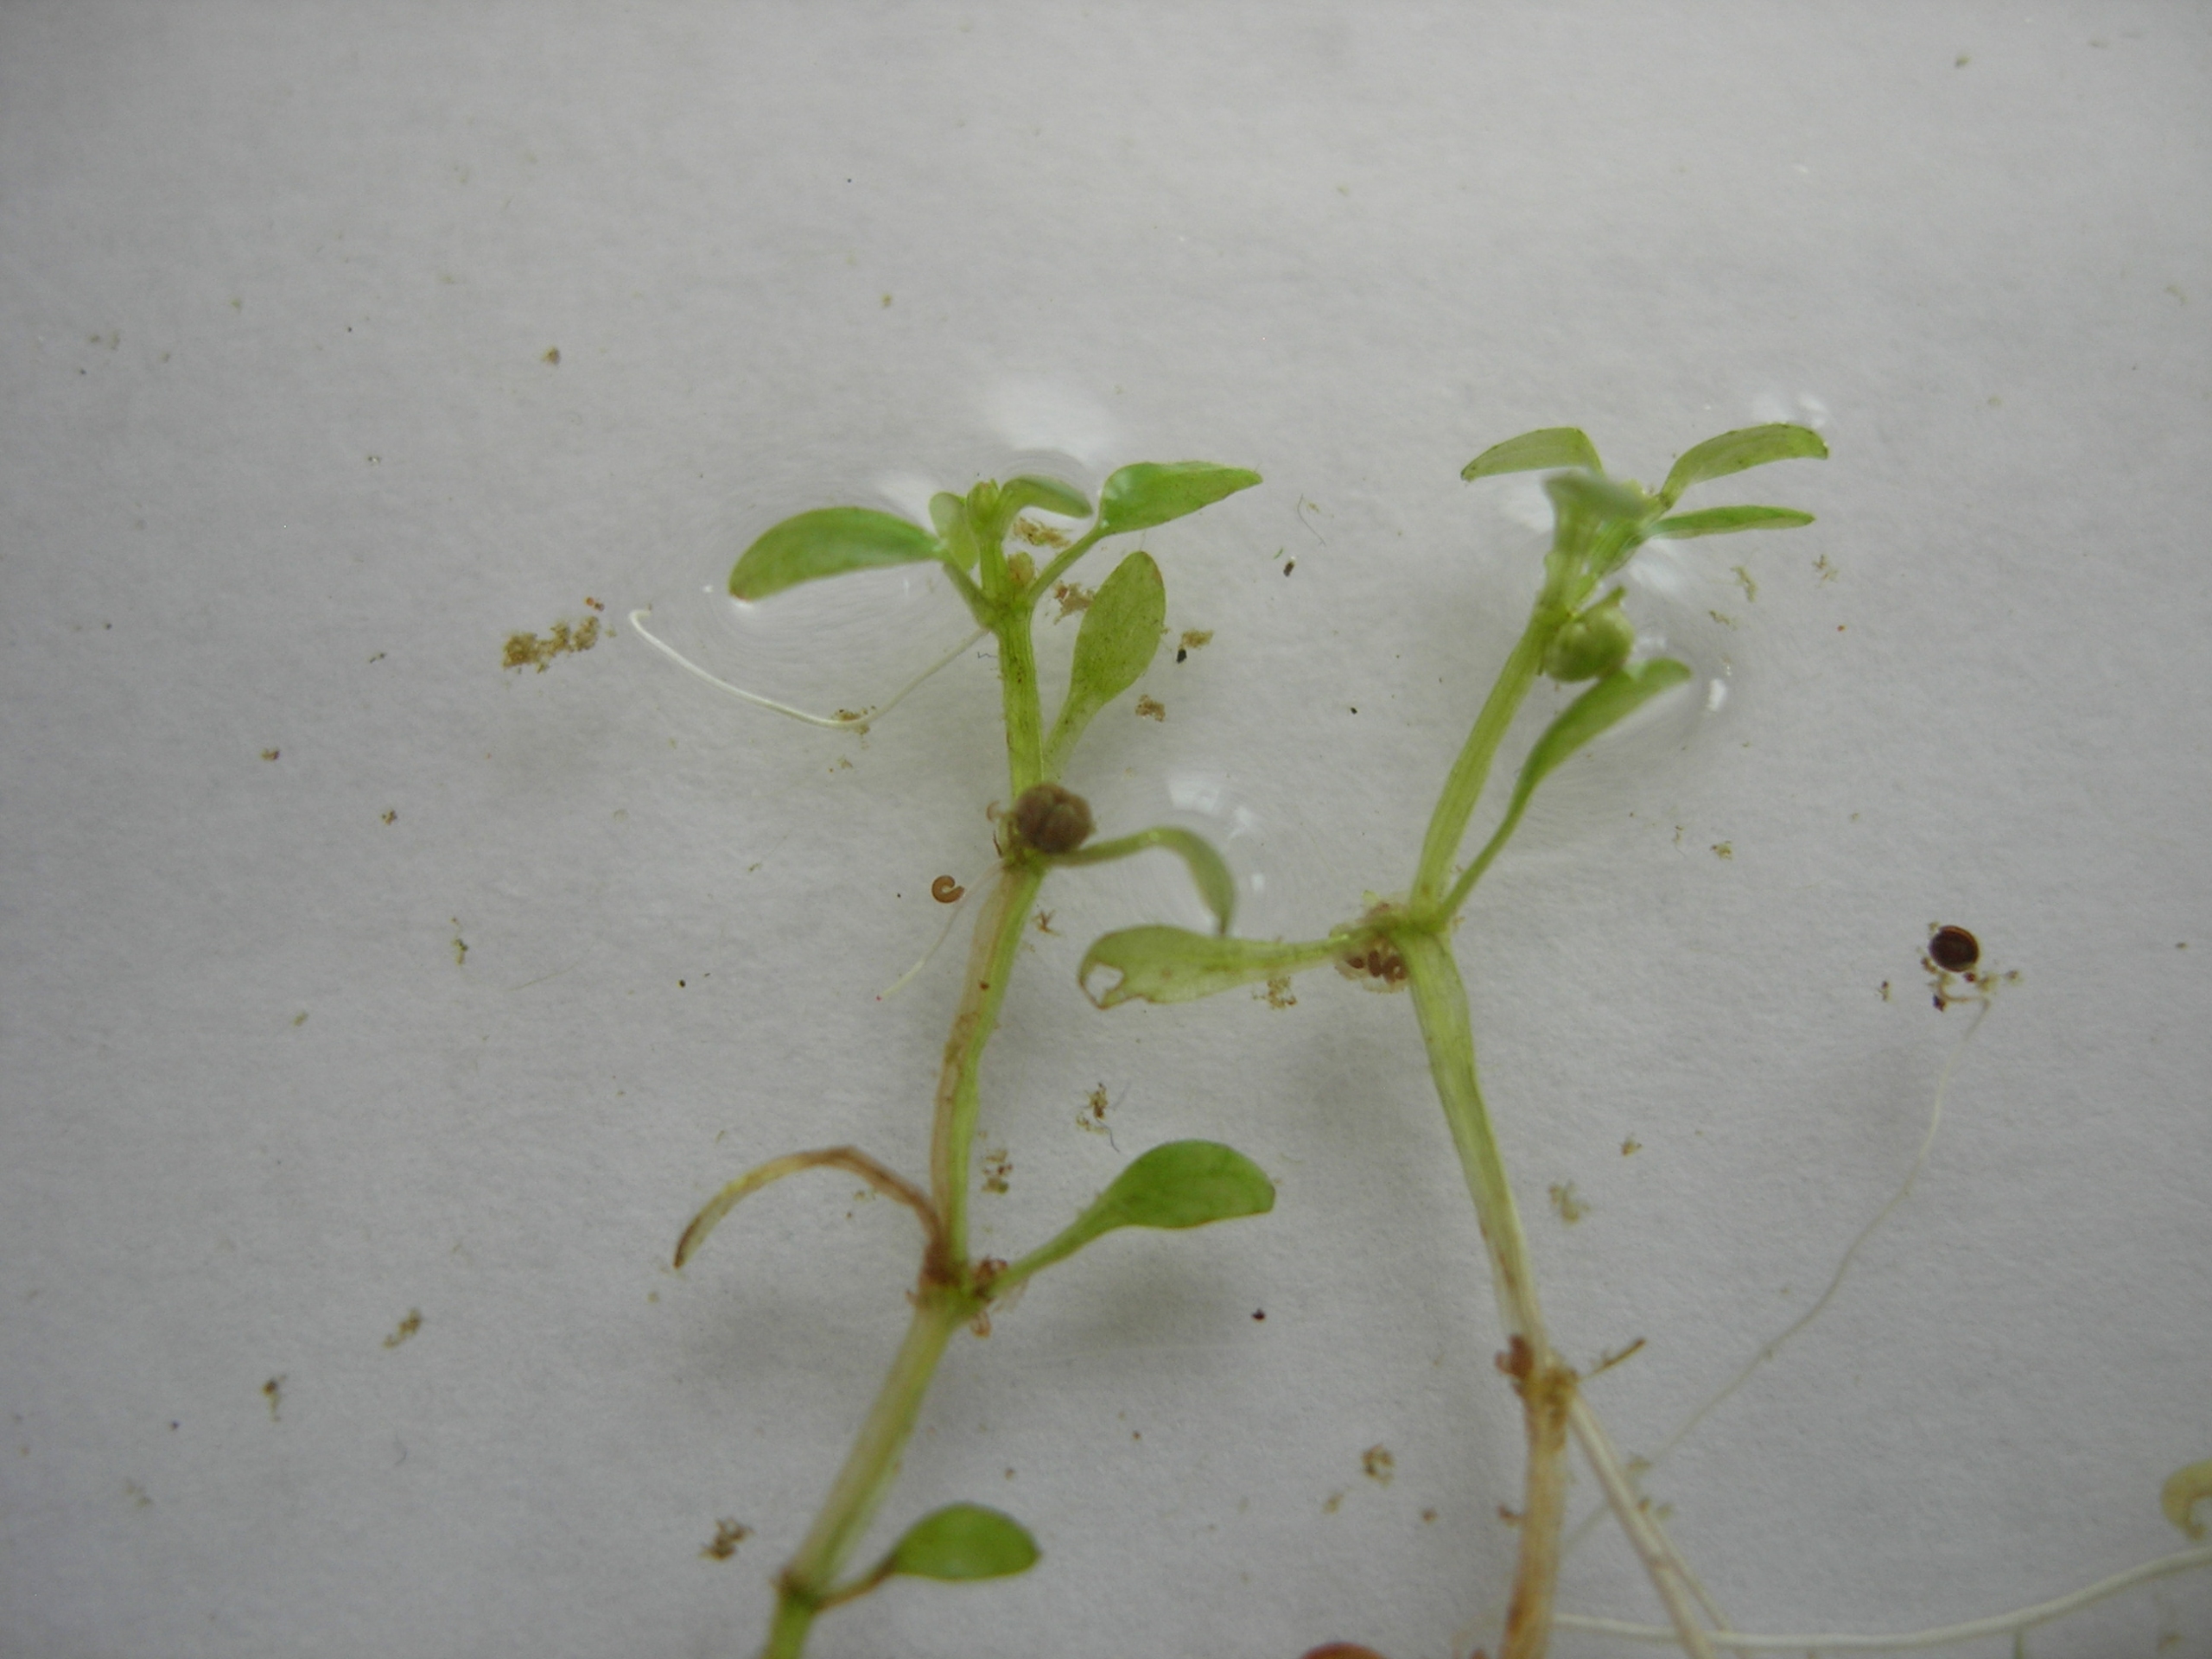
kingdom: Plantae
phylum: Tracheophyta
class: Magnoliopsida
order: Malpighiales
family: Elatinaceae
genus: Elatine
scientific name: Elatine hydropiper
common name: Vandpeber-bækarve
